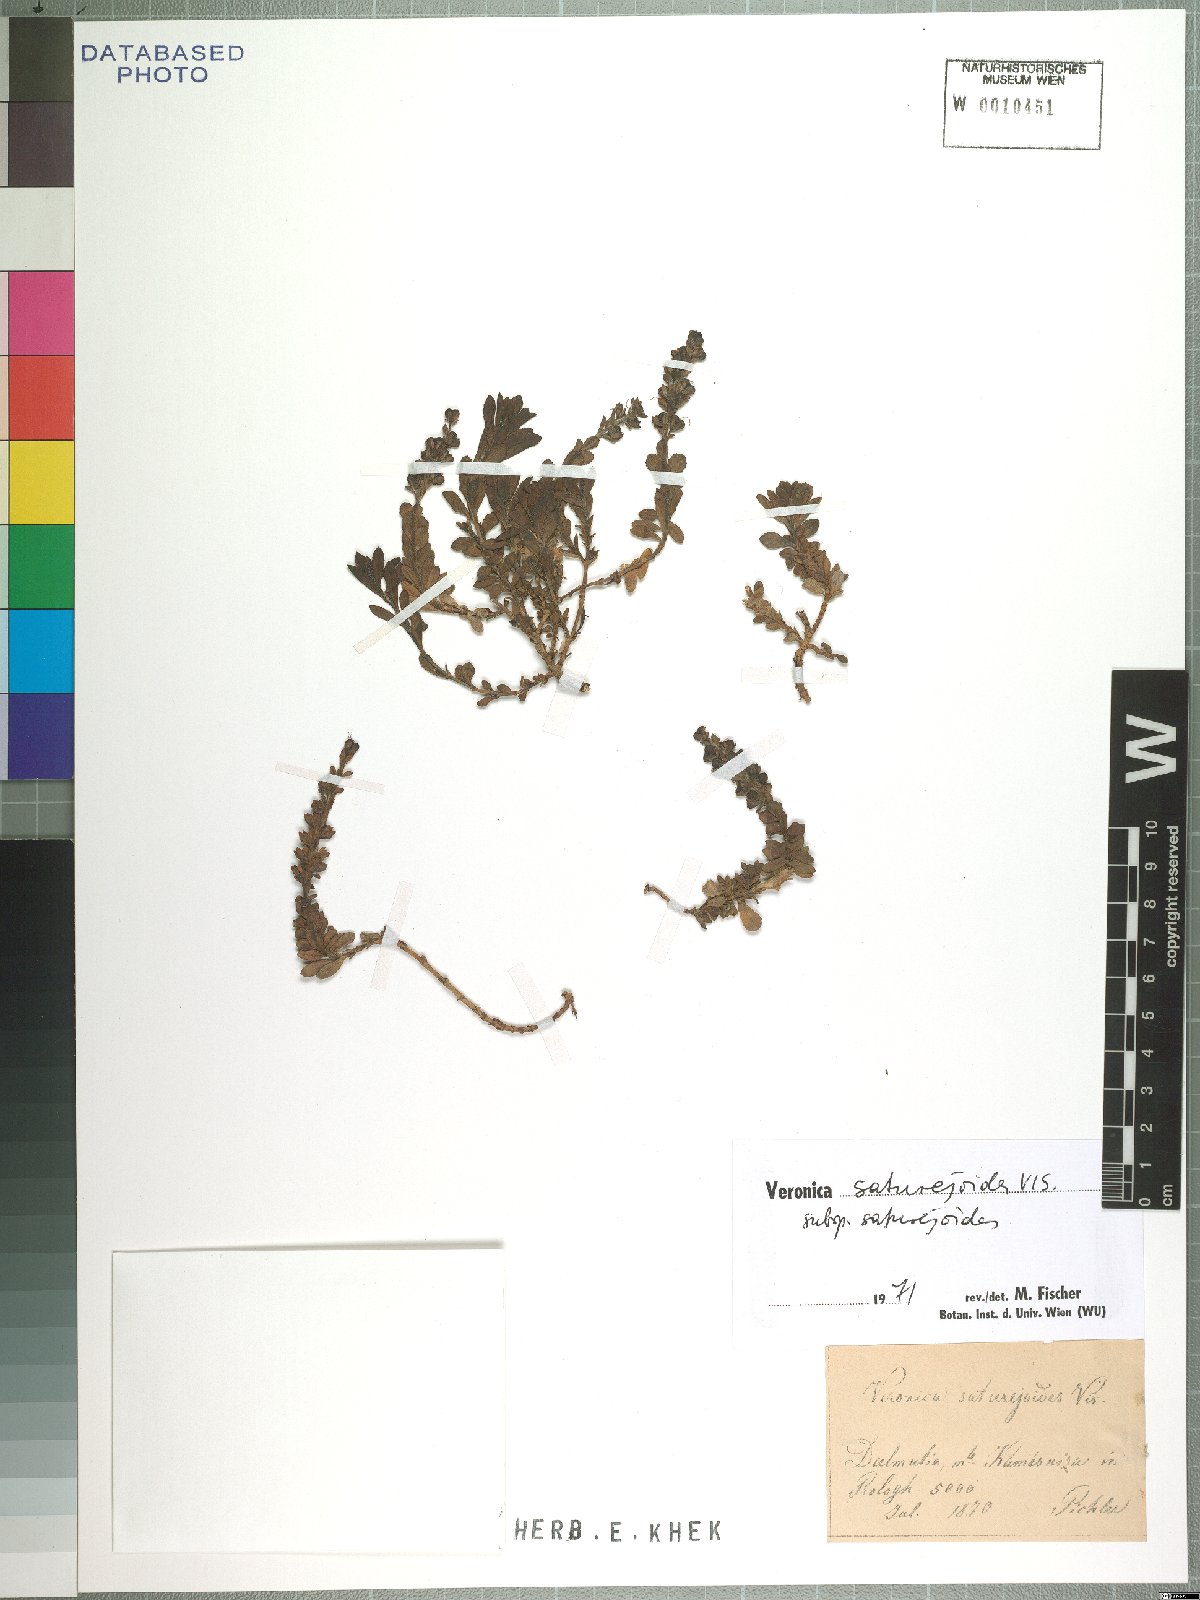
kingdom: Plantae
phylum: Tracheophyta
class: Magnoliopsida
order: Lamiales
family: Plantaginaceae
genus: Veronica
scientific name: Veronica saturejoides
